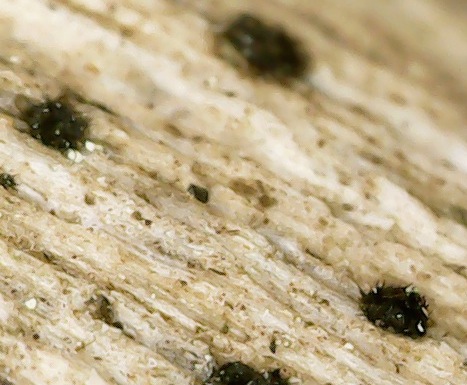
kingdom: Fungi
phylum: Ascomycota
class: Sordariomycetes
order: Chaetosphaeriales
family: Chaetosphaeriaceae
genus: Pseudolachnea
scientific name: Pseudolachnea hispidula
